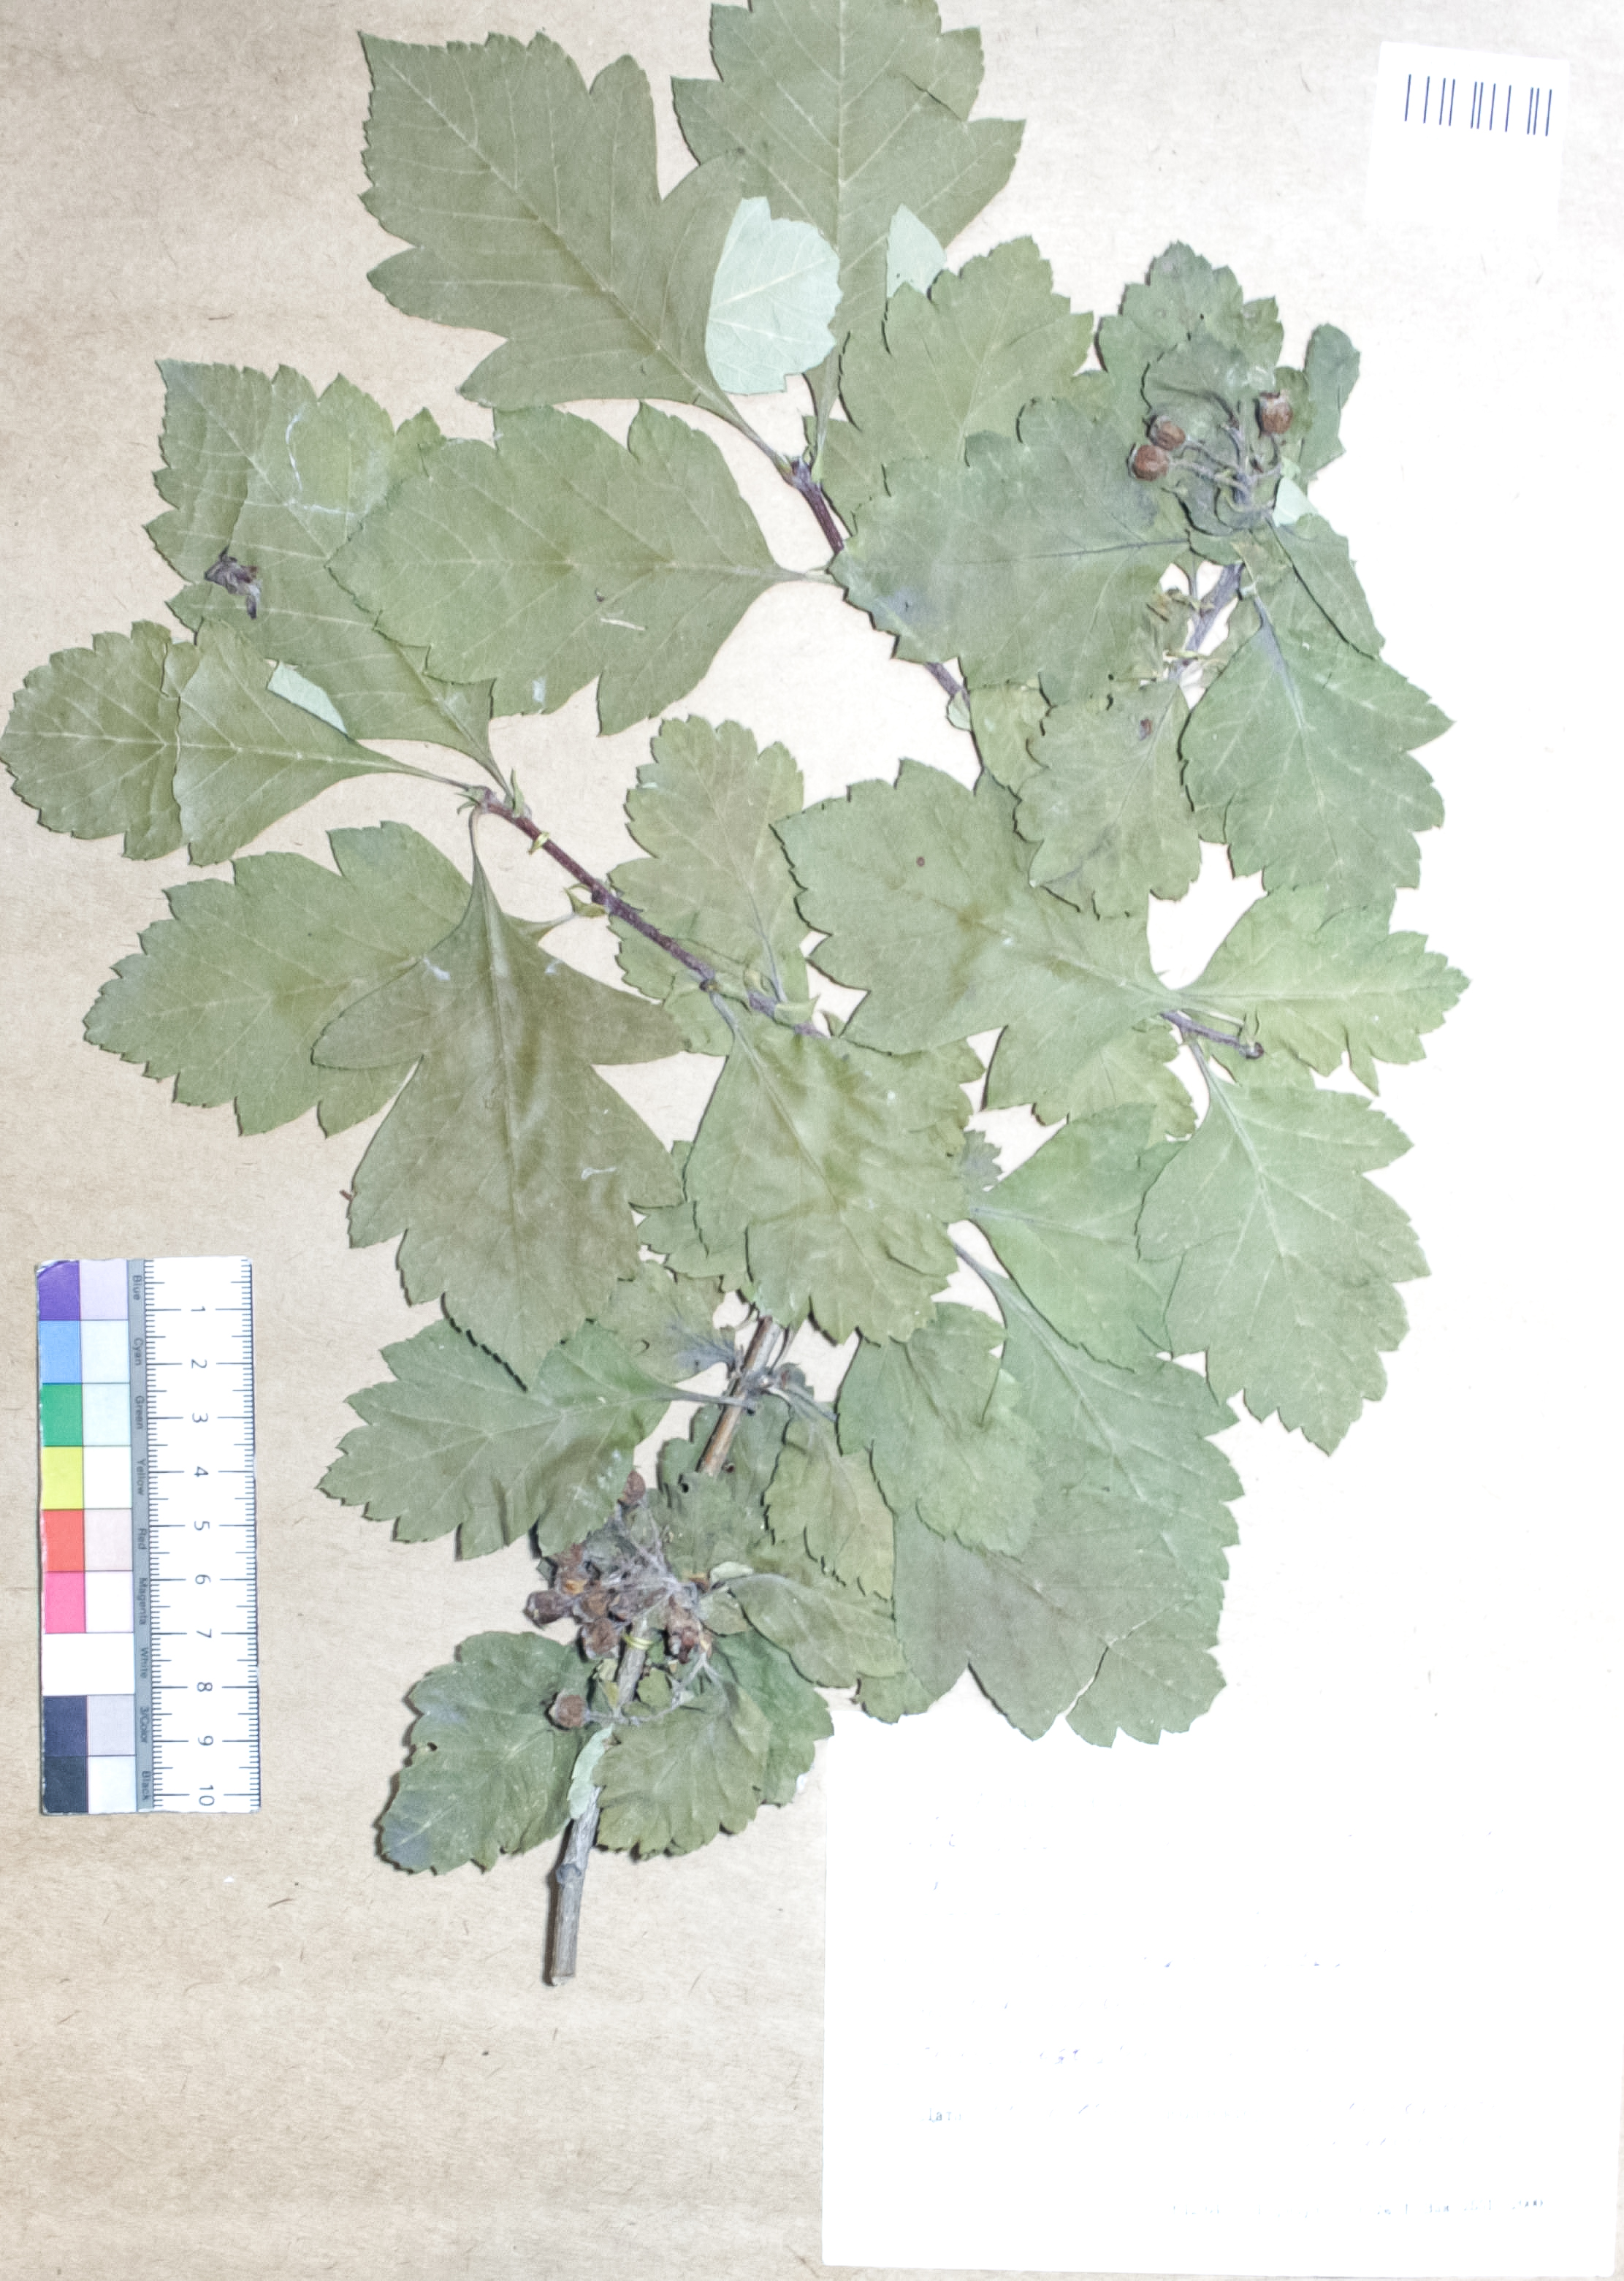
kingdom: Plantae
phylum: Tracheophyta
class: Magnoliopsida
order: Rosales
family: Rosaceae
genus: Crataegus
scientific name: Crataegus maximowiczii
